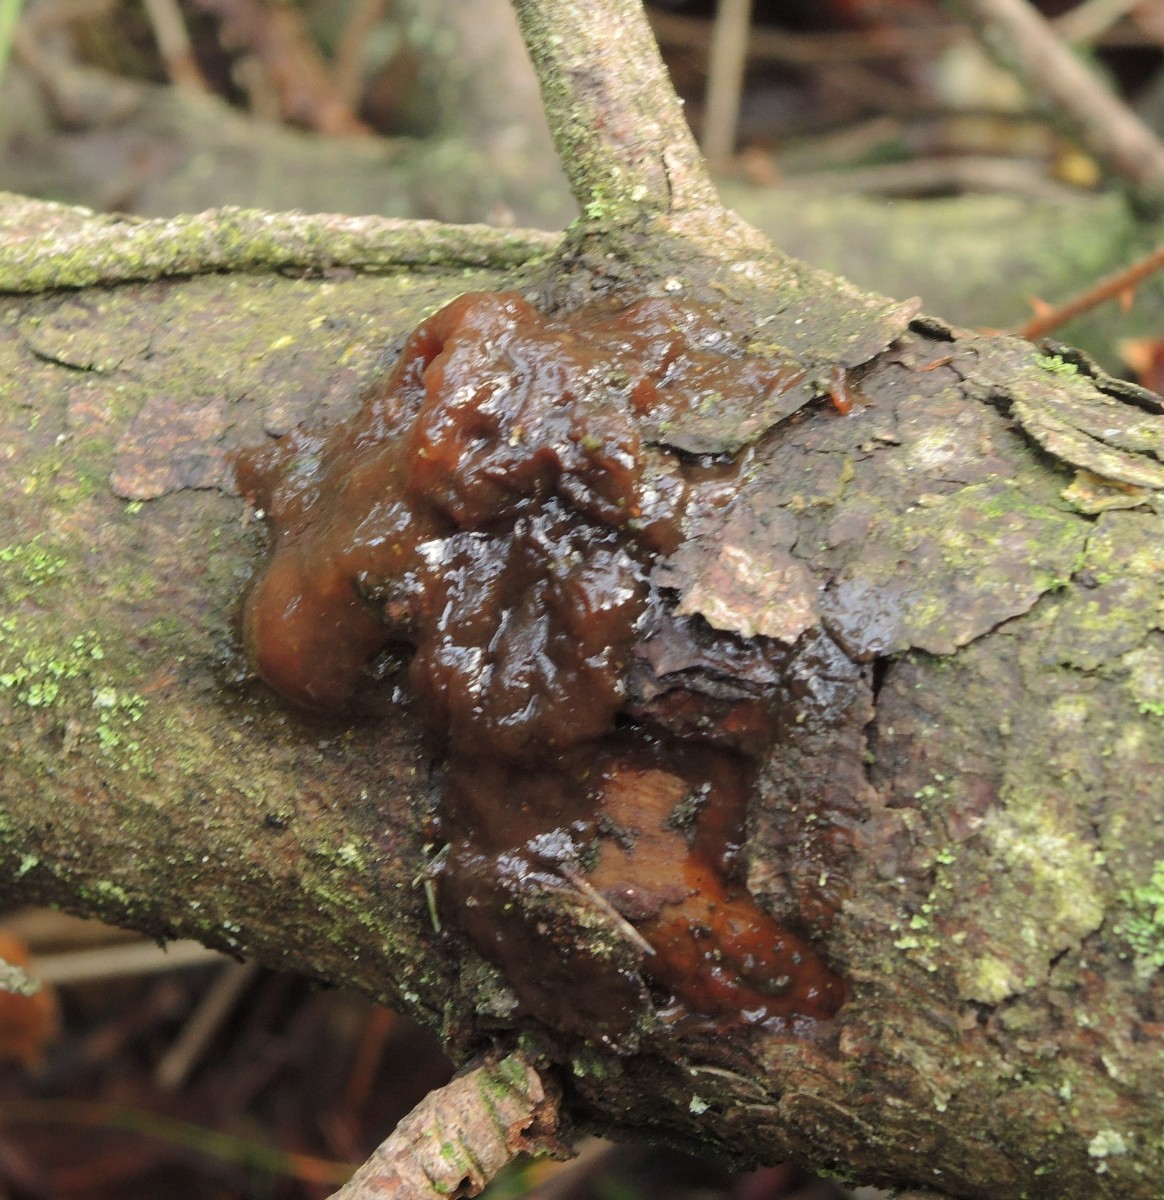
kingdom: Fungi
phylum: Basidiomycota
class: Agaricomycetes
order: Auriculariales
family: Auriculariaceae
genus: Exidia
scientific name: Exidia saccharina
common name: kandis-bævretop
